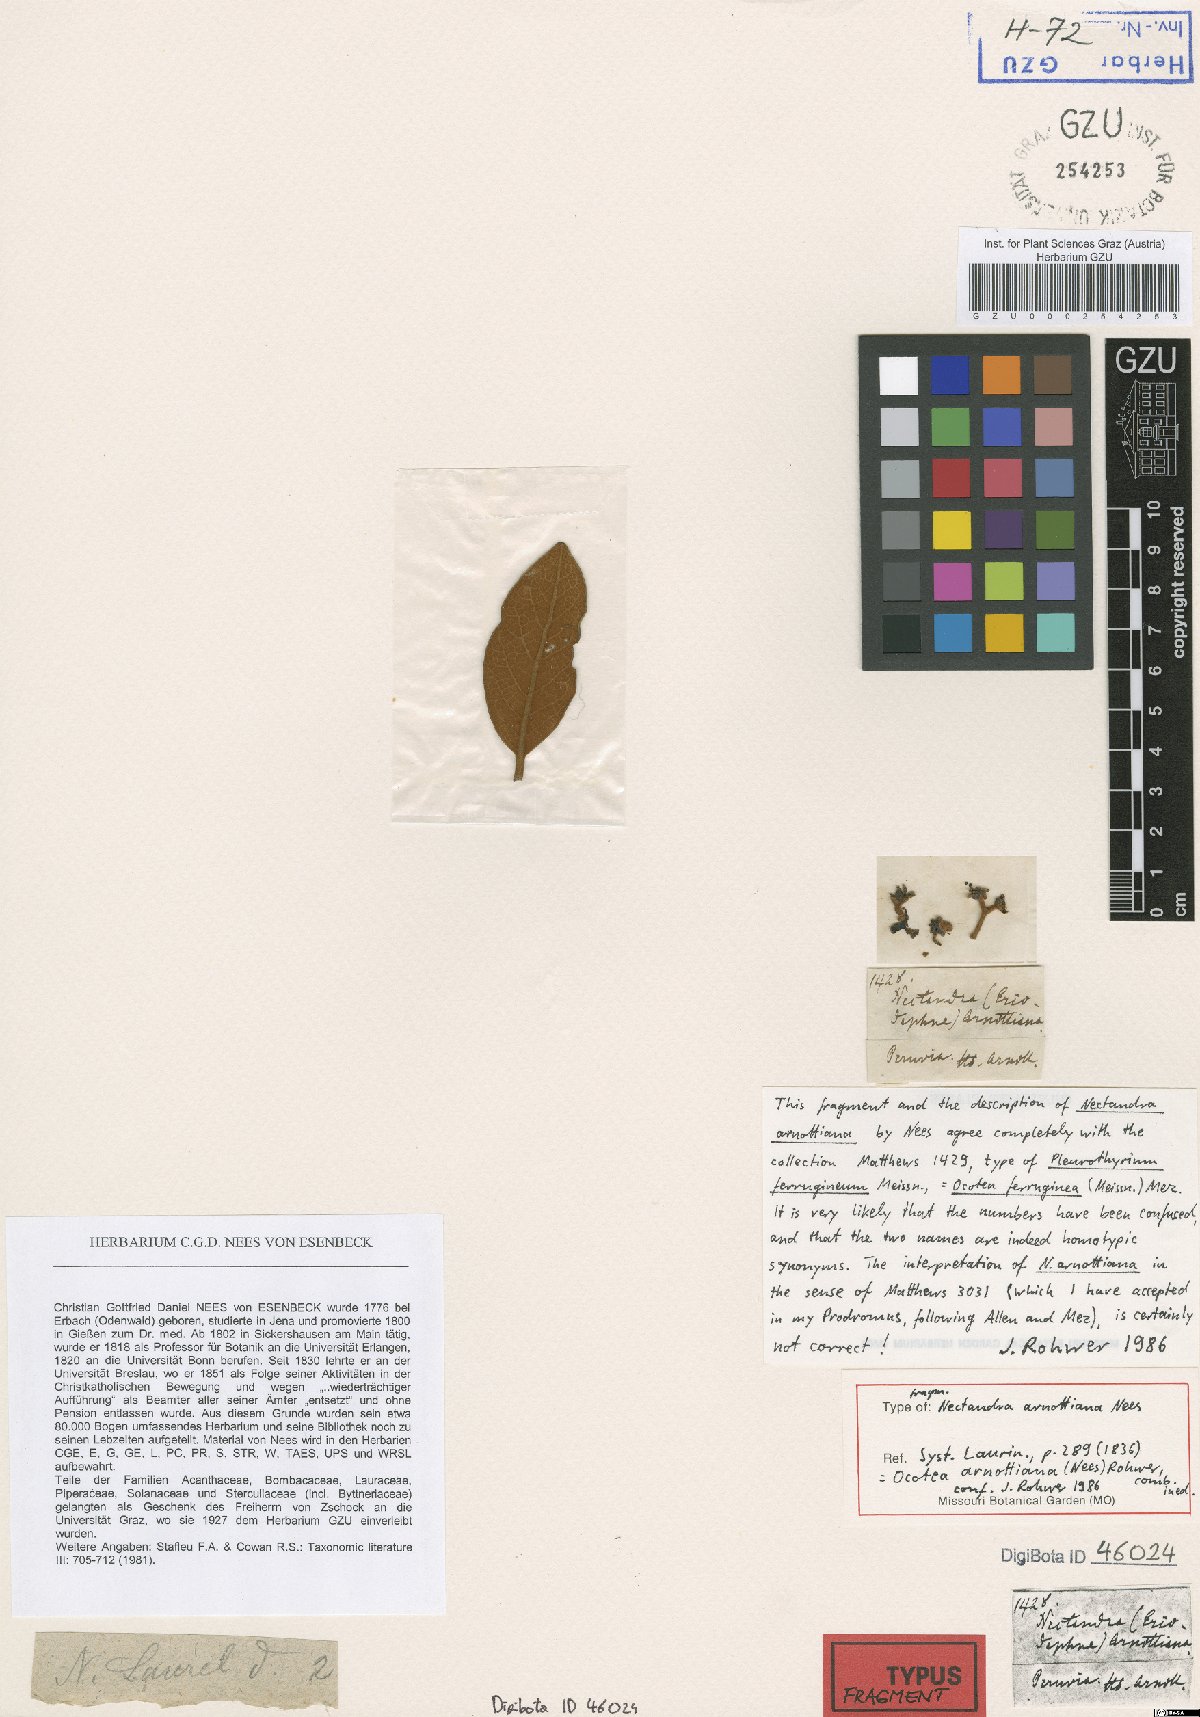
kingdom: Plantae
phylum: Tracheophyta
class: Magnoliopsida
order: Laurales
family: Lauraceae
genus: Ocotea
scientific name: Ocotea arnottiana
